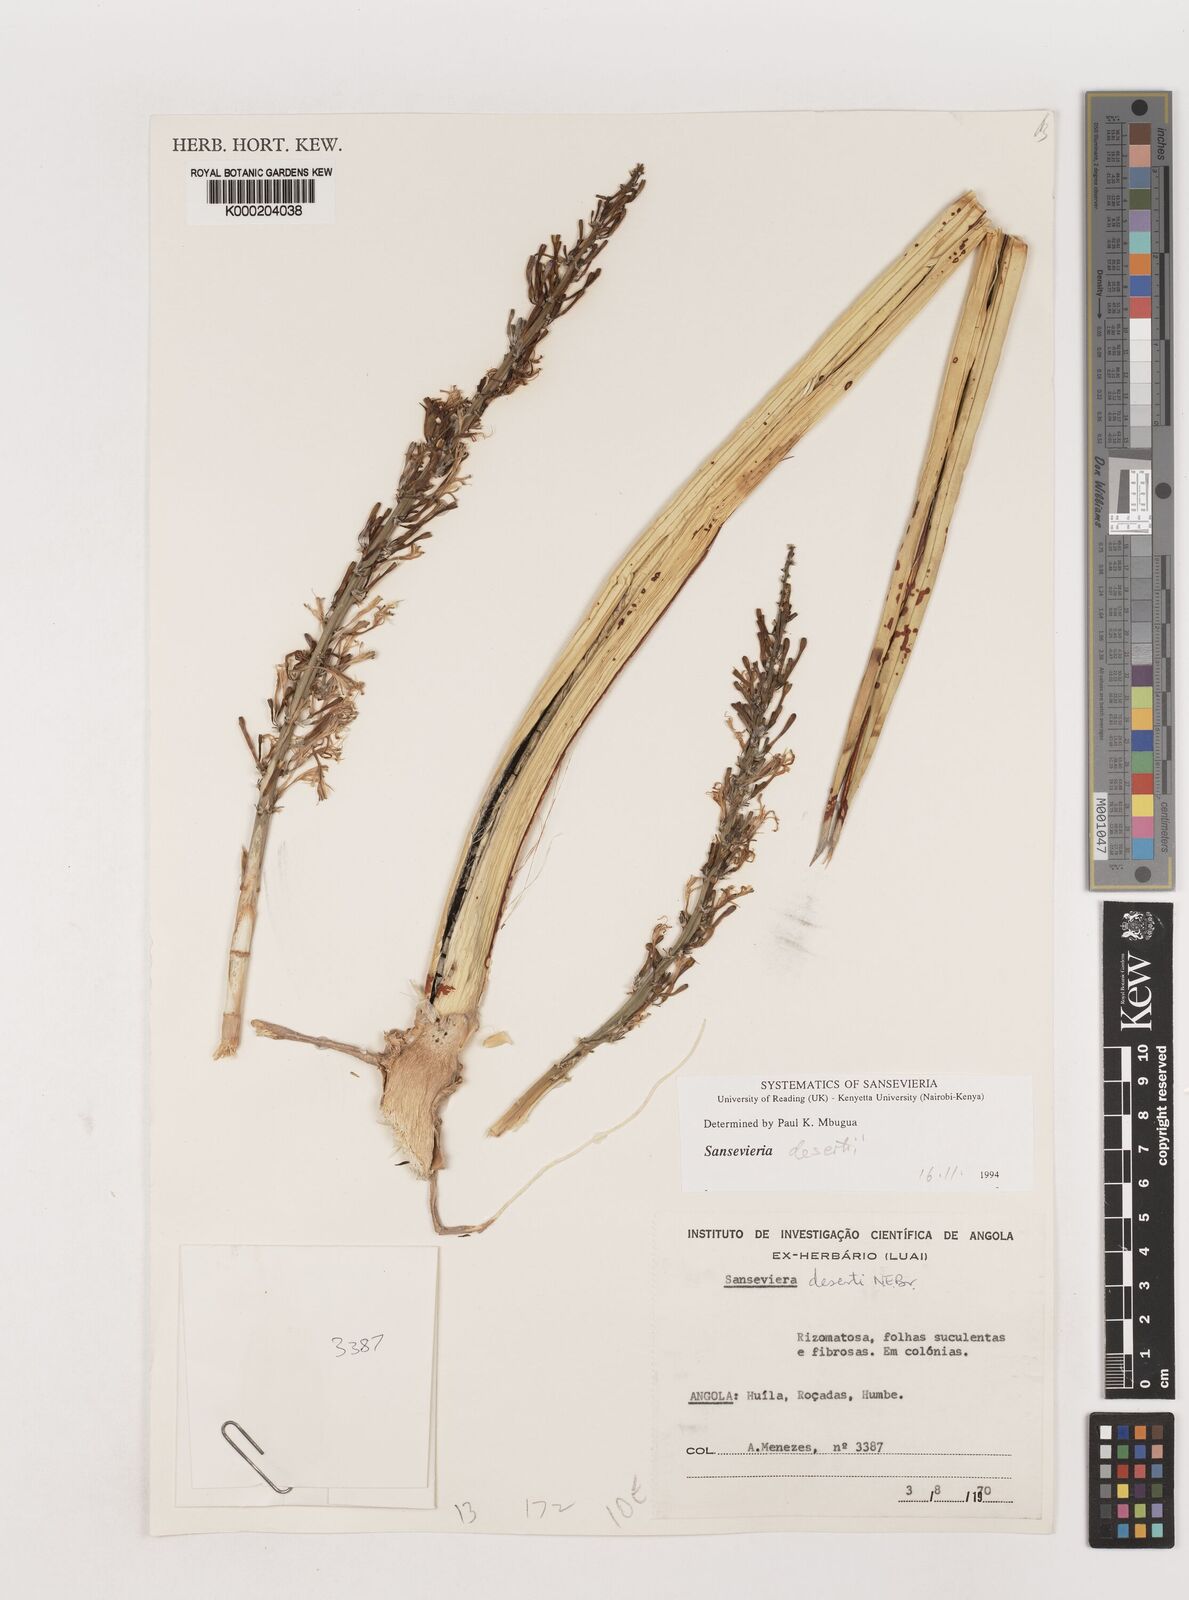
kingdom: Plantae
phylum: Tracheophyta
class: Liliopsida
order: Asparagales
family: Asparagaceae
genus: Dracaena
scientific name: Dracaena pearsonii
